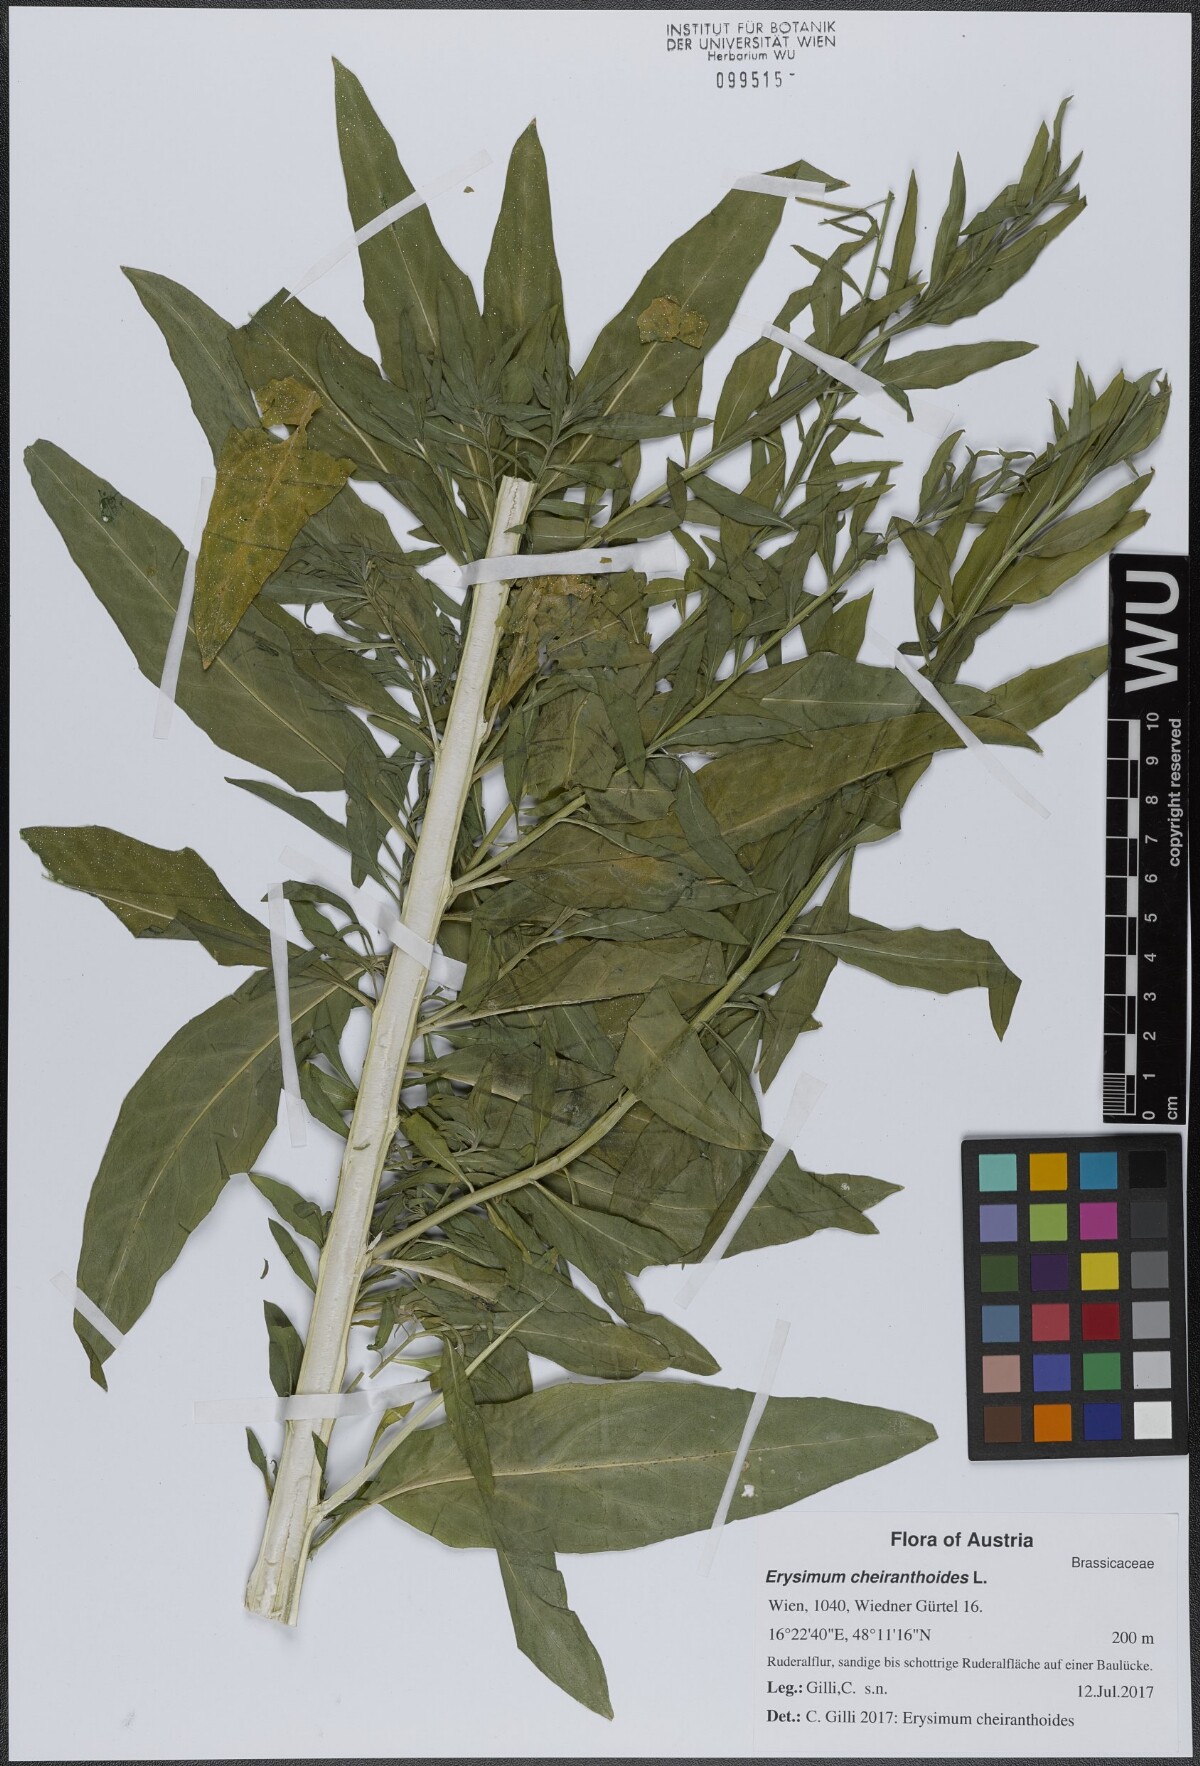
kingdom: Plantae
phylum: Tracheophyta
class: Magnoliopsida
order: Brassicales
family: Brassicaceae
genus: Erysimum
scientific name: Erysimum cheiranthoides
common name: Treacle mustard
